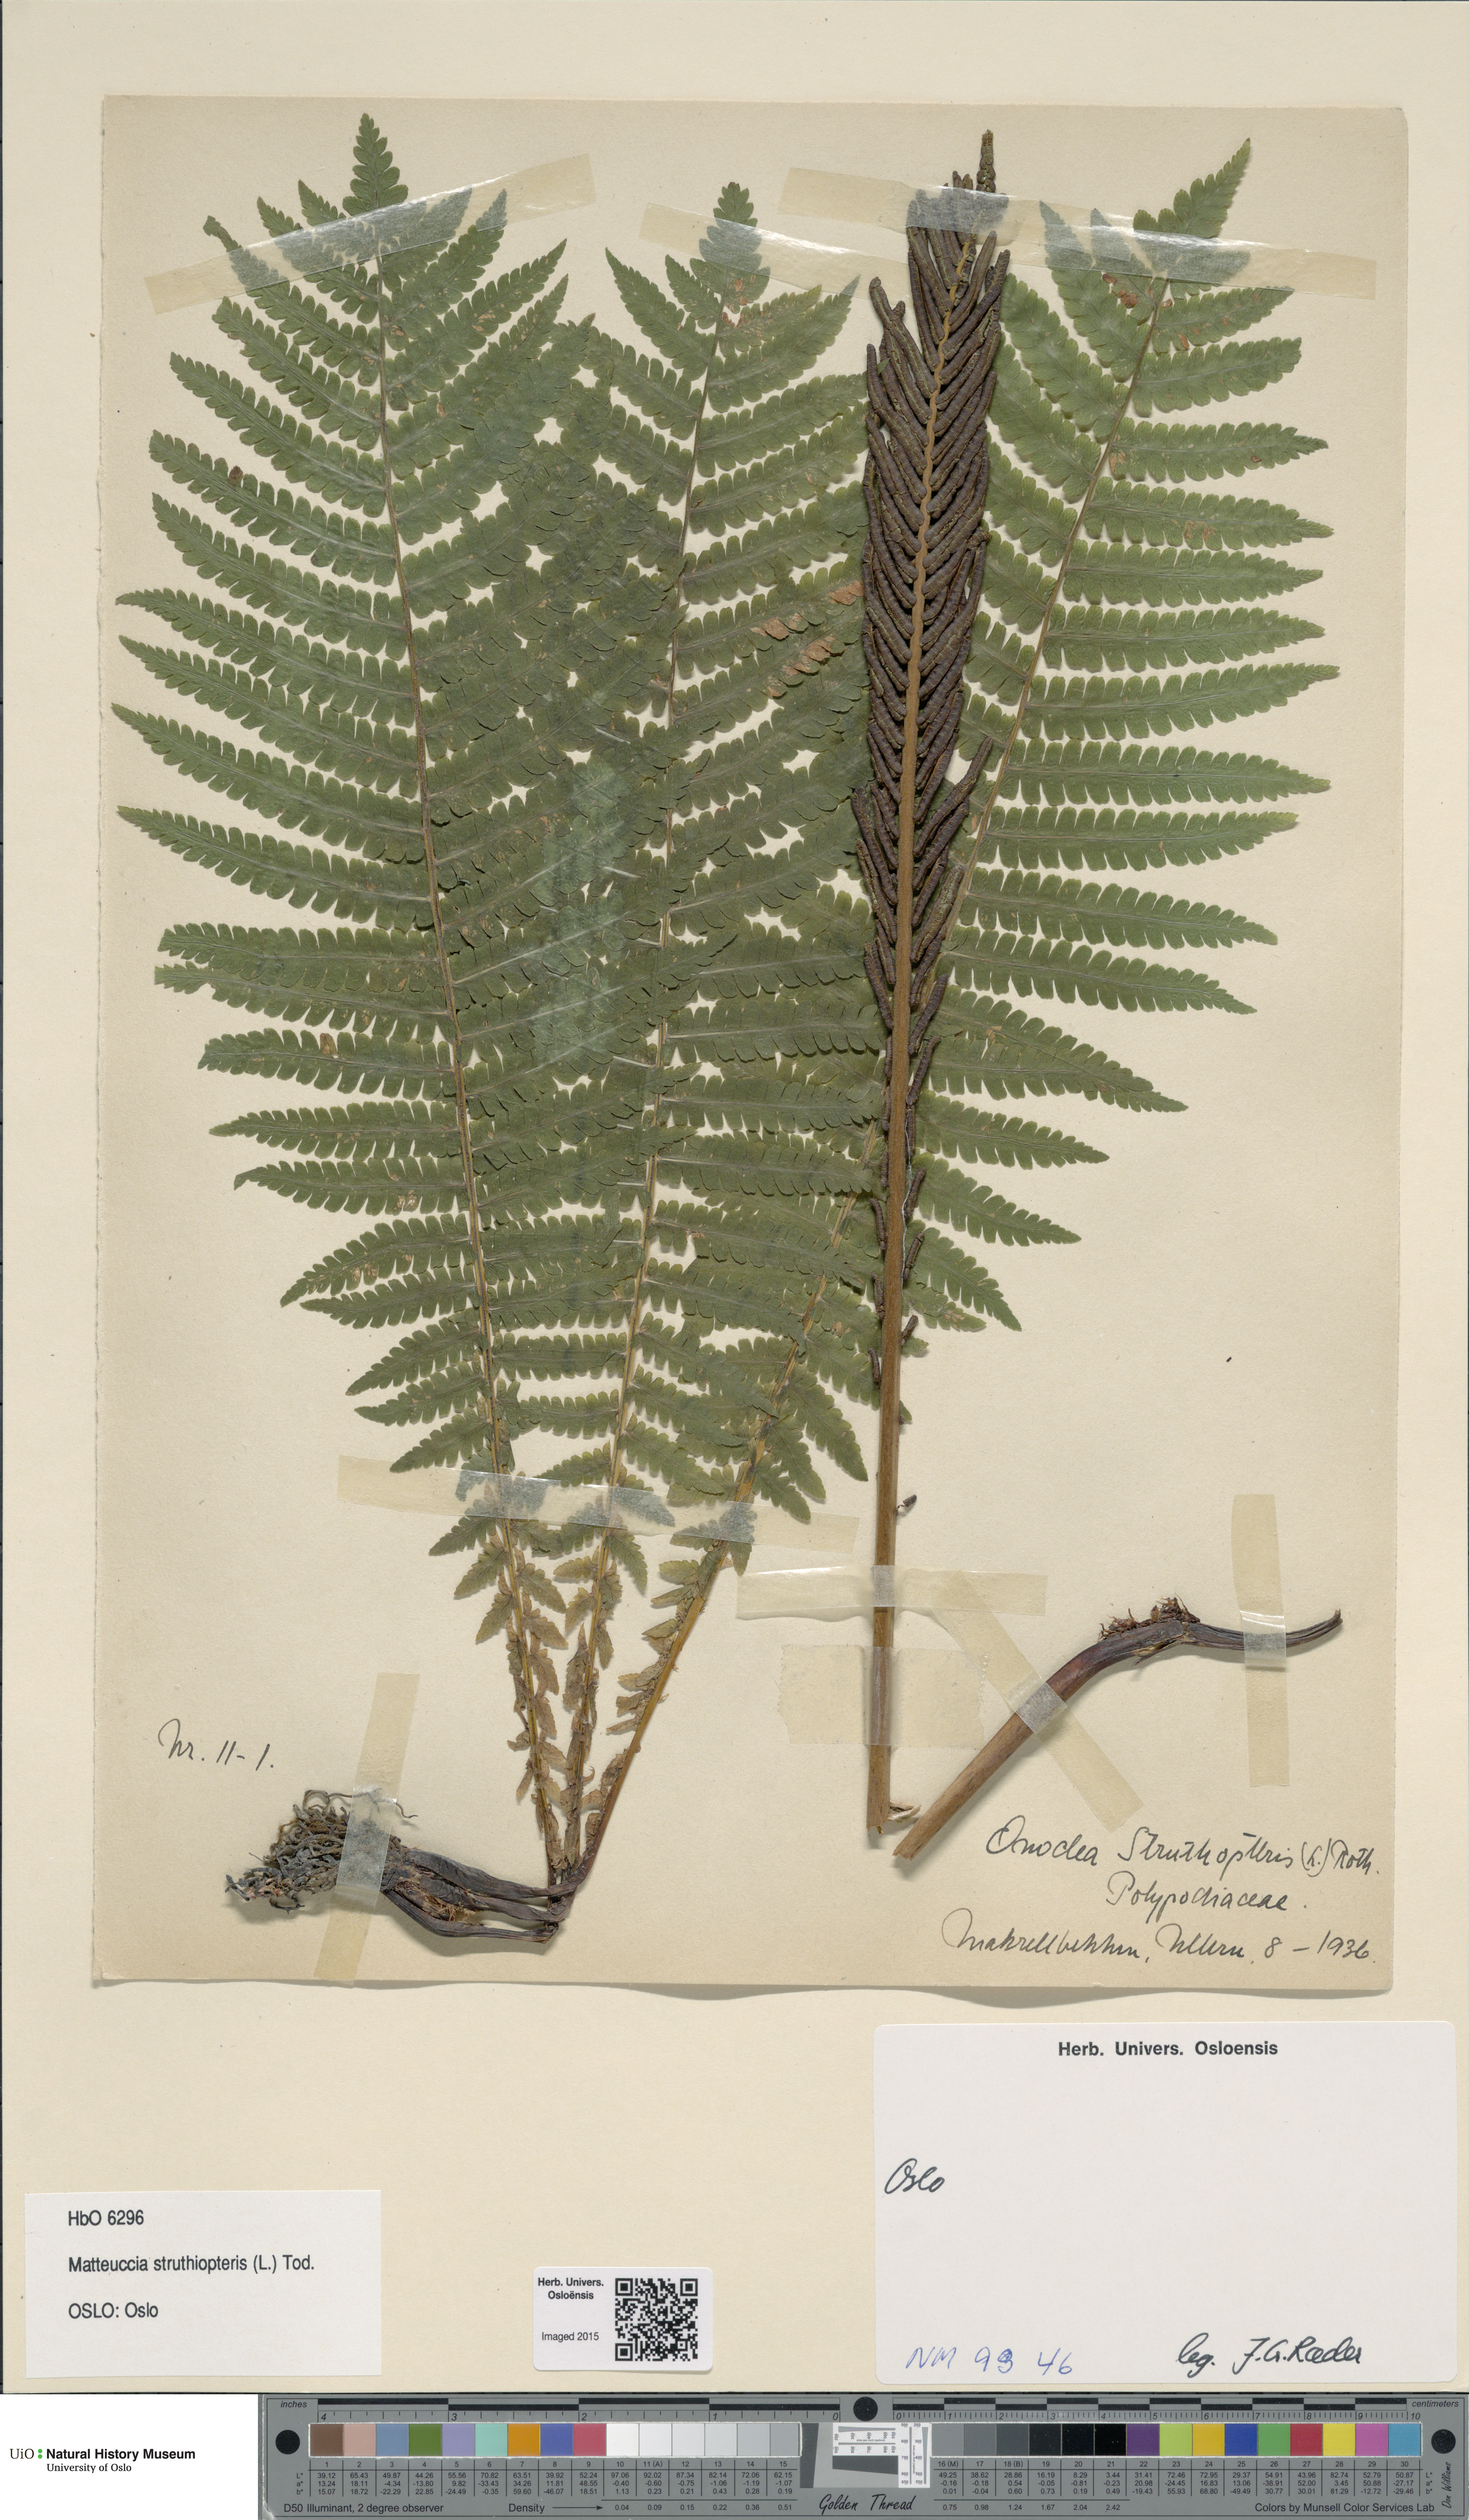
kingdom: Plantae
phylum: Tracheophyta
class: Polypodiopsida
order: Polypodiales
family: Onocleaceae
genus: Matteuccia
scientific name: Matteuccia struthiopteris
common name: Ostrich fern
